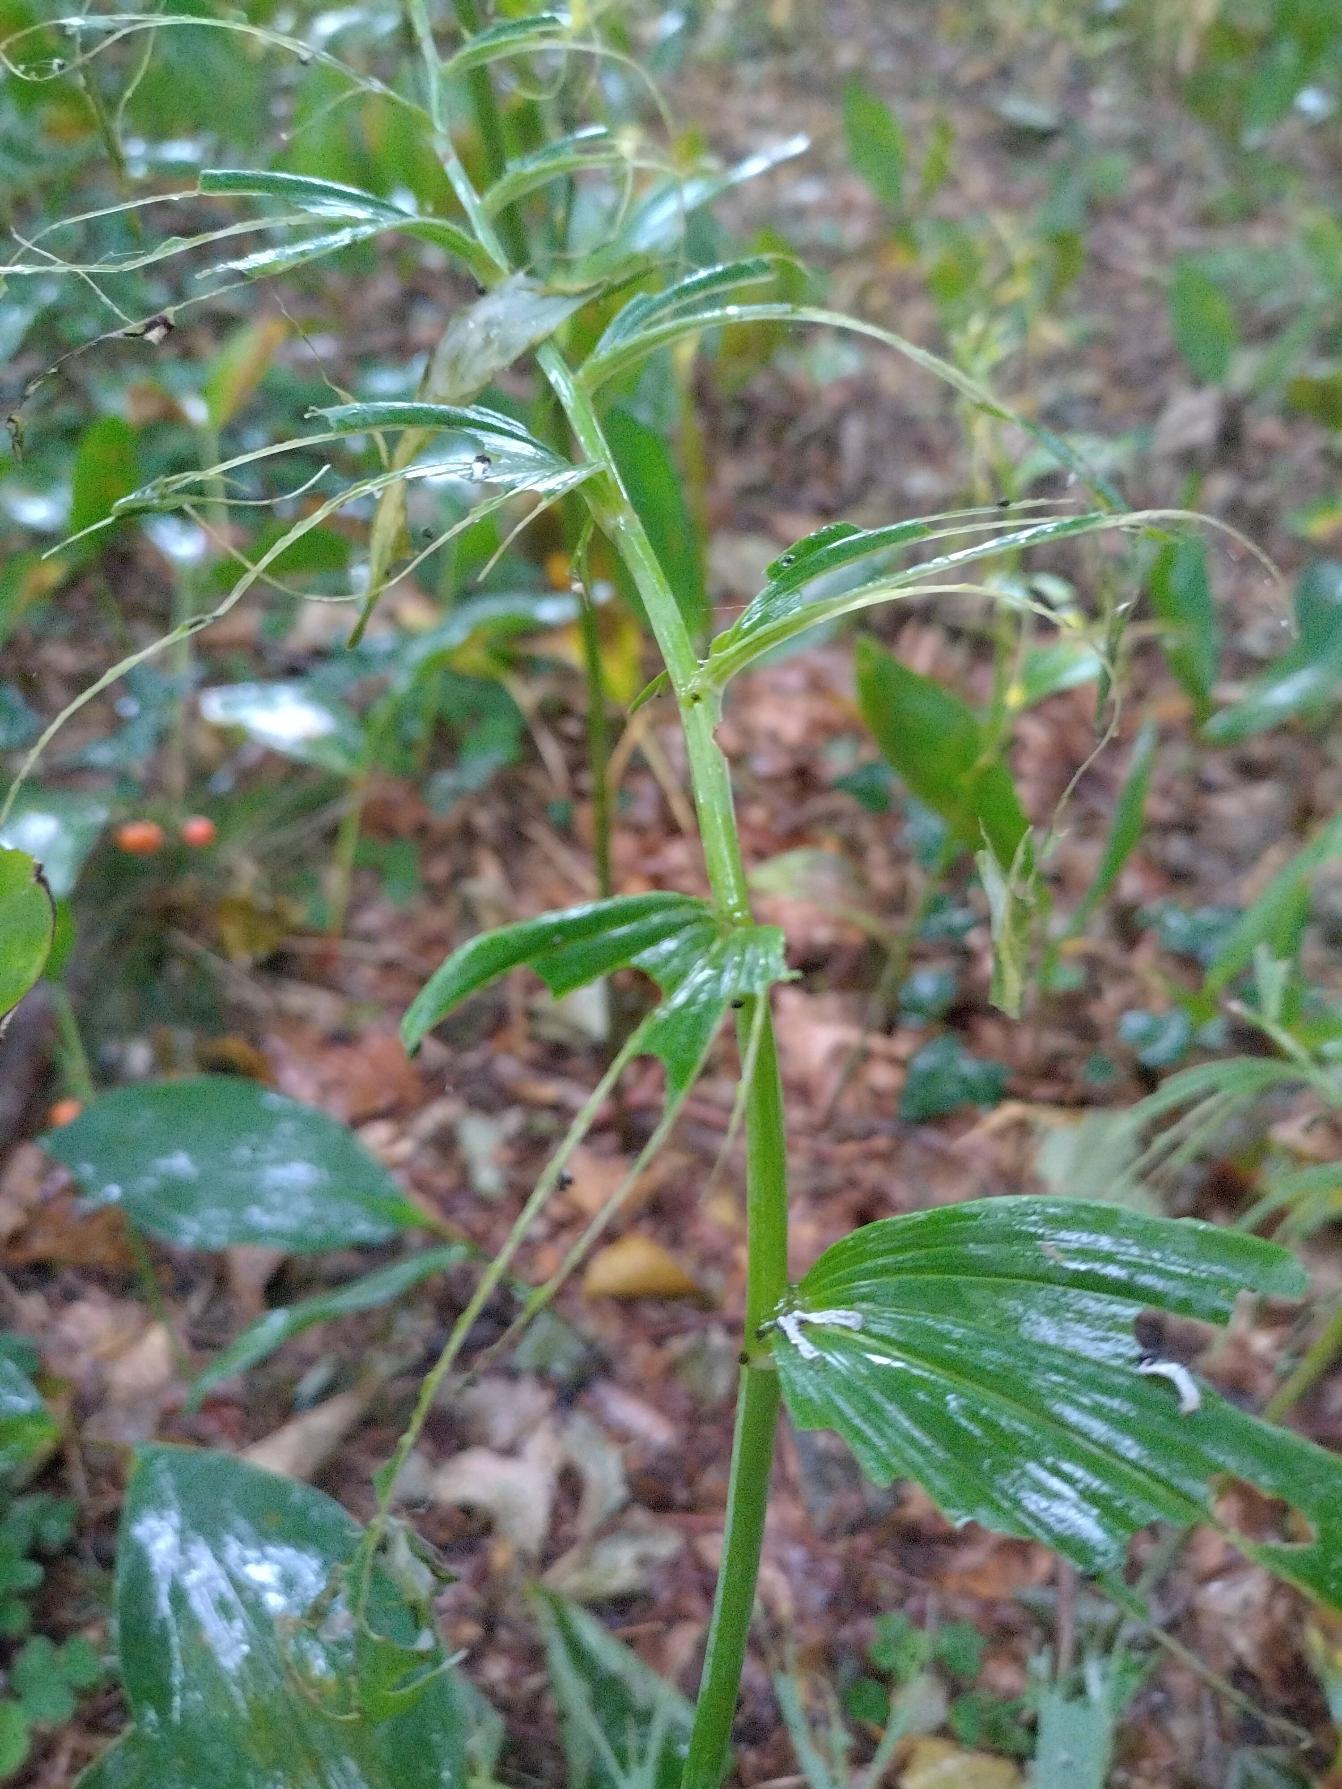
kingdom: Plantae
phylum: Tracheophyta
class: Liliopsida
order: Asparagales
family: Asparagaceae
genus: Polygonatum
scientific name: Polygonatum
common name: Hybrid-konval
